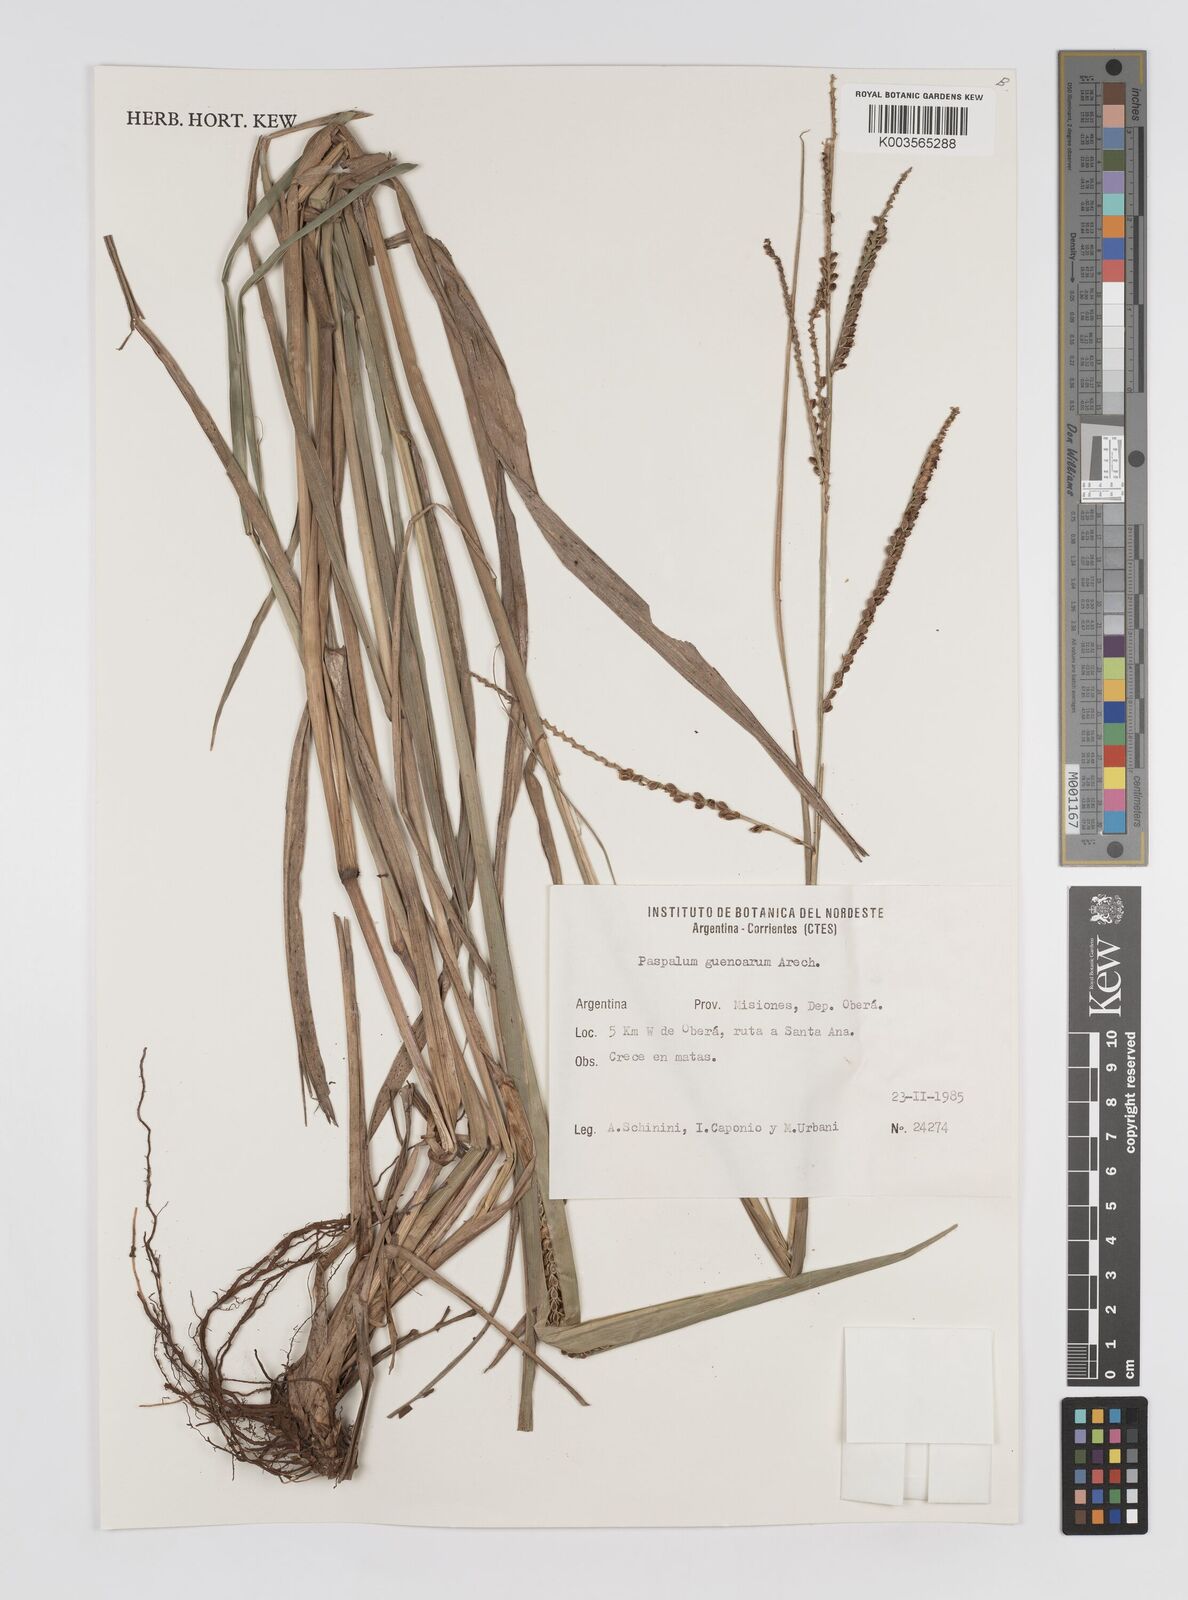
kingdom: Plantae
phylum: Tracheophyta
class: Liliopsida
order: Poales
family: Poaceae
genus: Paspalum
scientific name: Paspalum guenoarum
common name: Wintergreen paspalum
